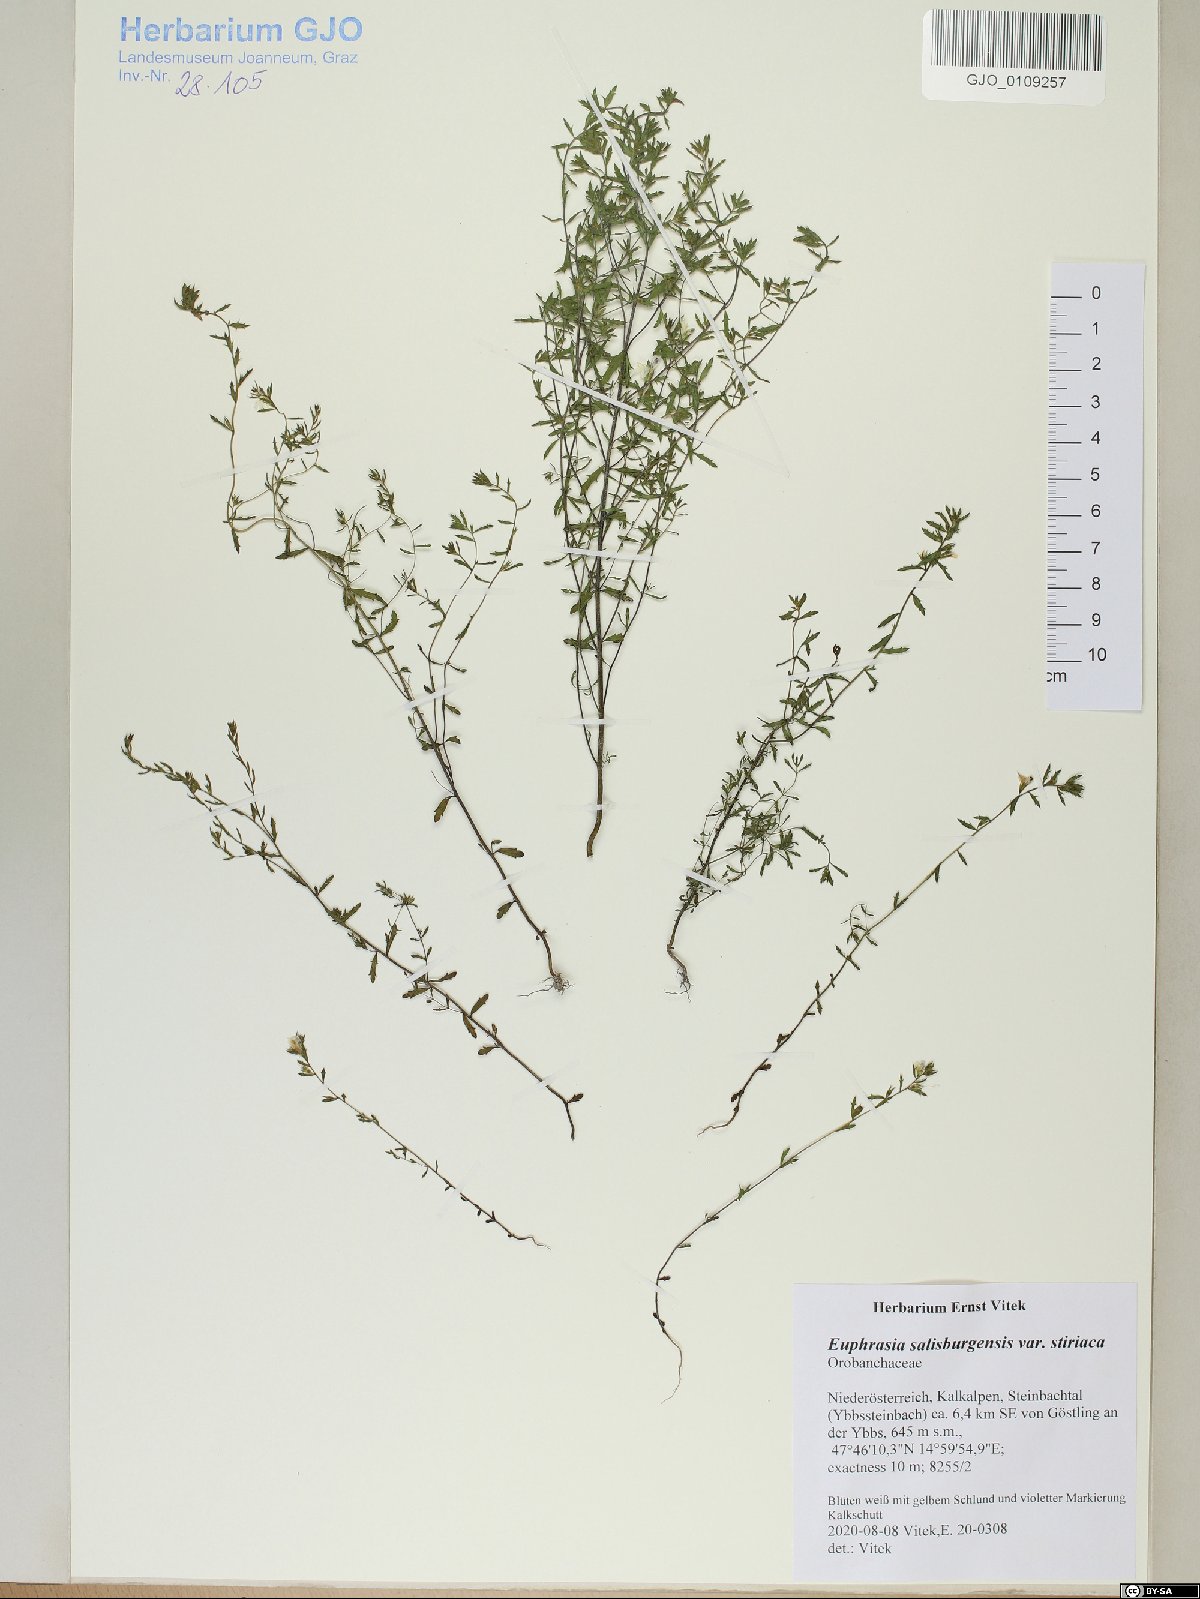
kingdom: Plantae
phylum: Tracheophyta
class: Magnoliopsida
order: Lamiales
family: Orobanchaceae
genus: Euphrasia
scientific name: Euphrasia salisburgensis
